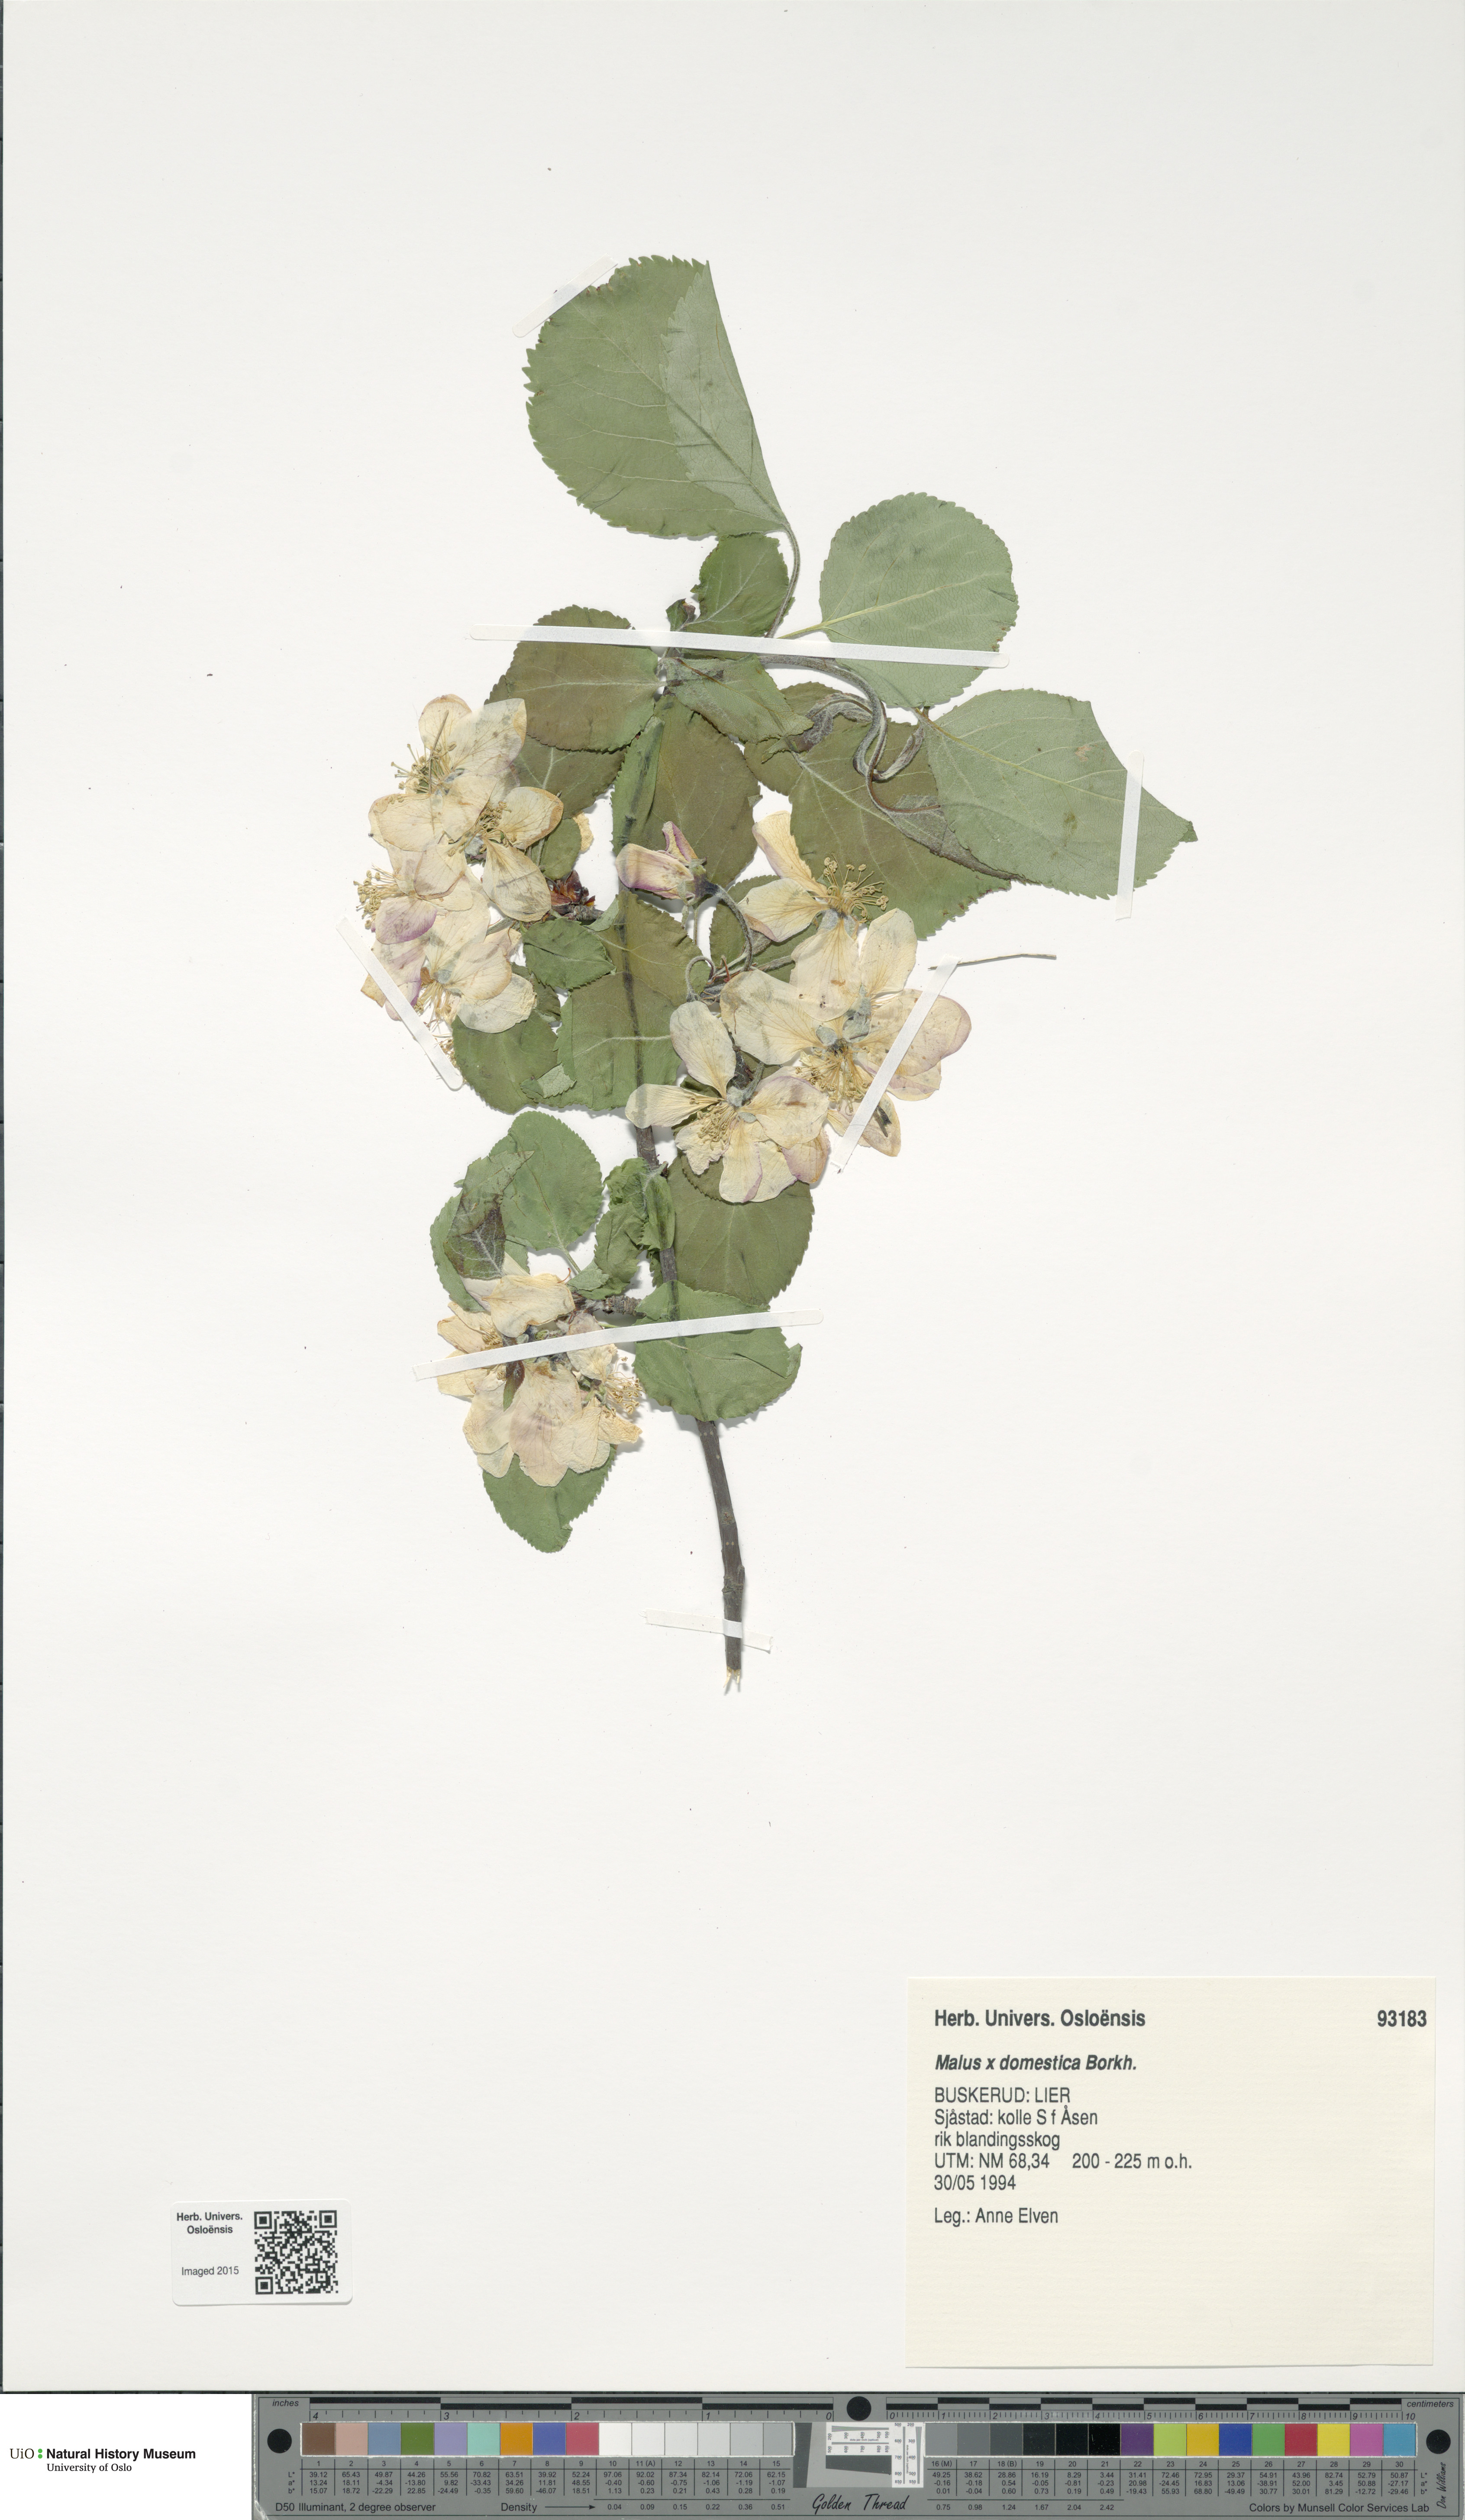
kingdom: Plantae
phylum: Tracheophyta
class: Magnoliopsida
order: Rosales
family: Rosaceae
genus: Malus
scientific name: Malus domestica
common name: Apple
